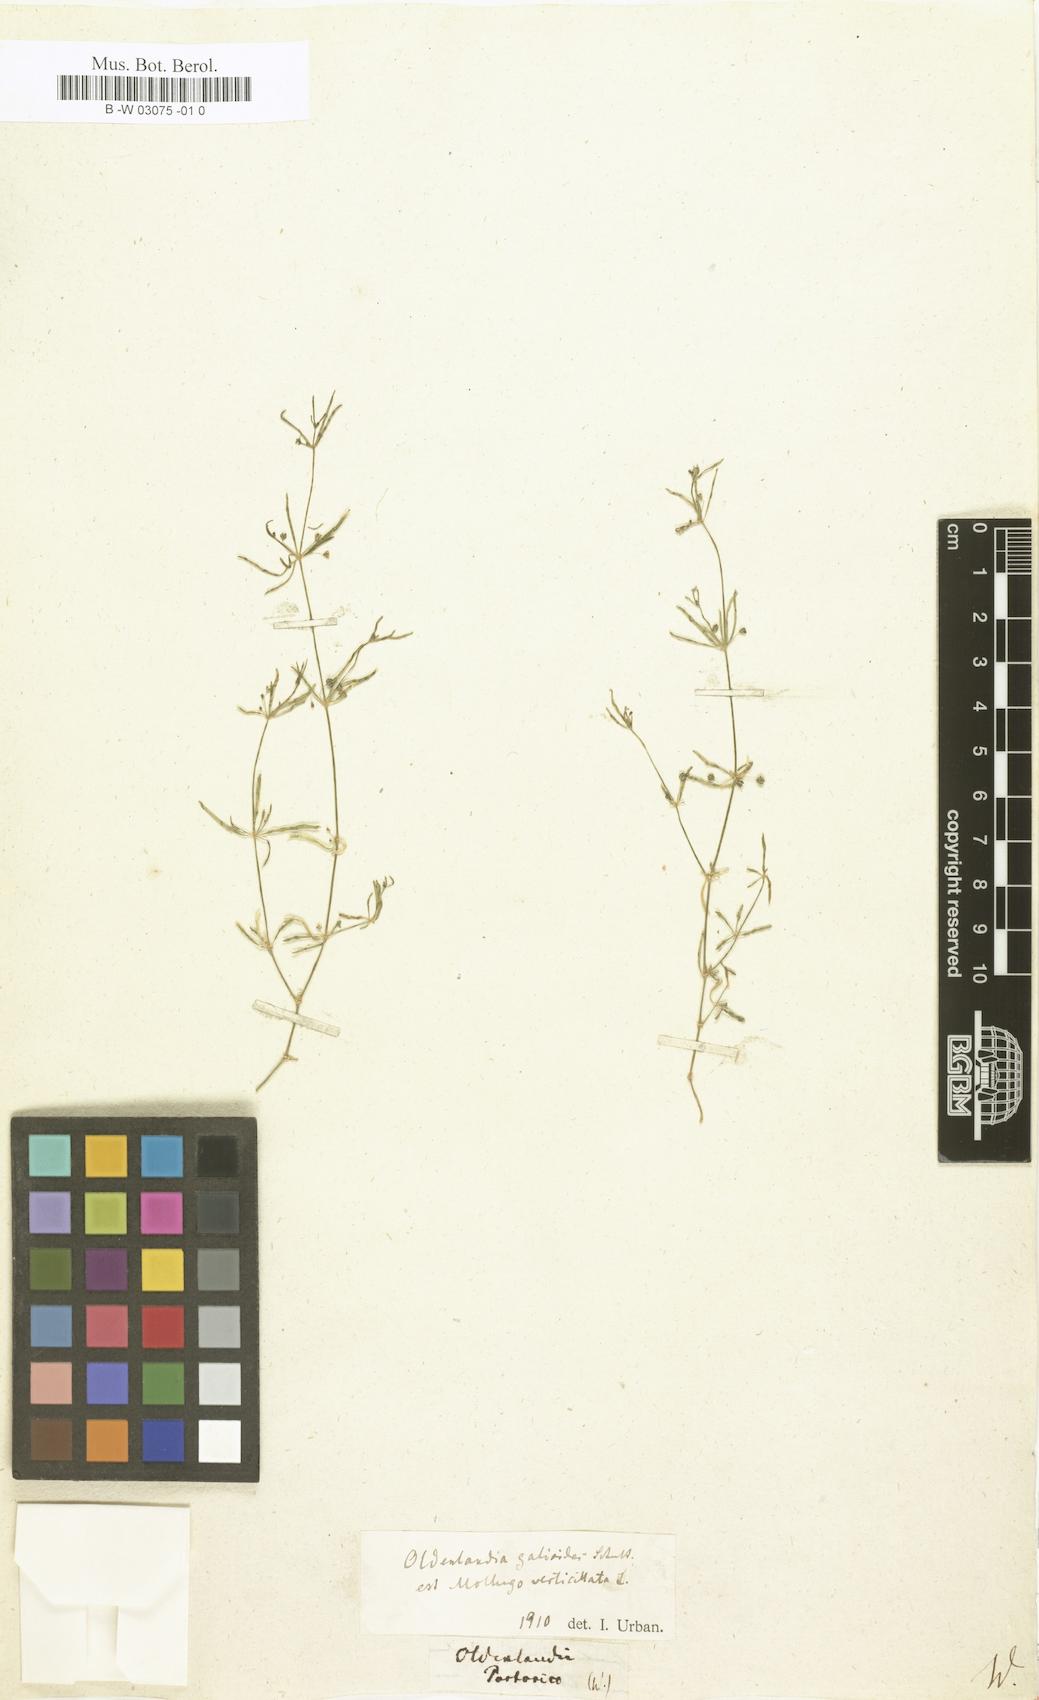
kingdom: Plantae
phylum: Tracheophyta
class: Magnoliopsida
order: Gentianales
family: Rubiaceae
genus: Oldenlandia
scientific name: Oldenlandia galioides
